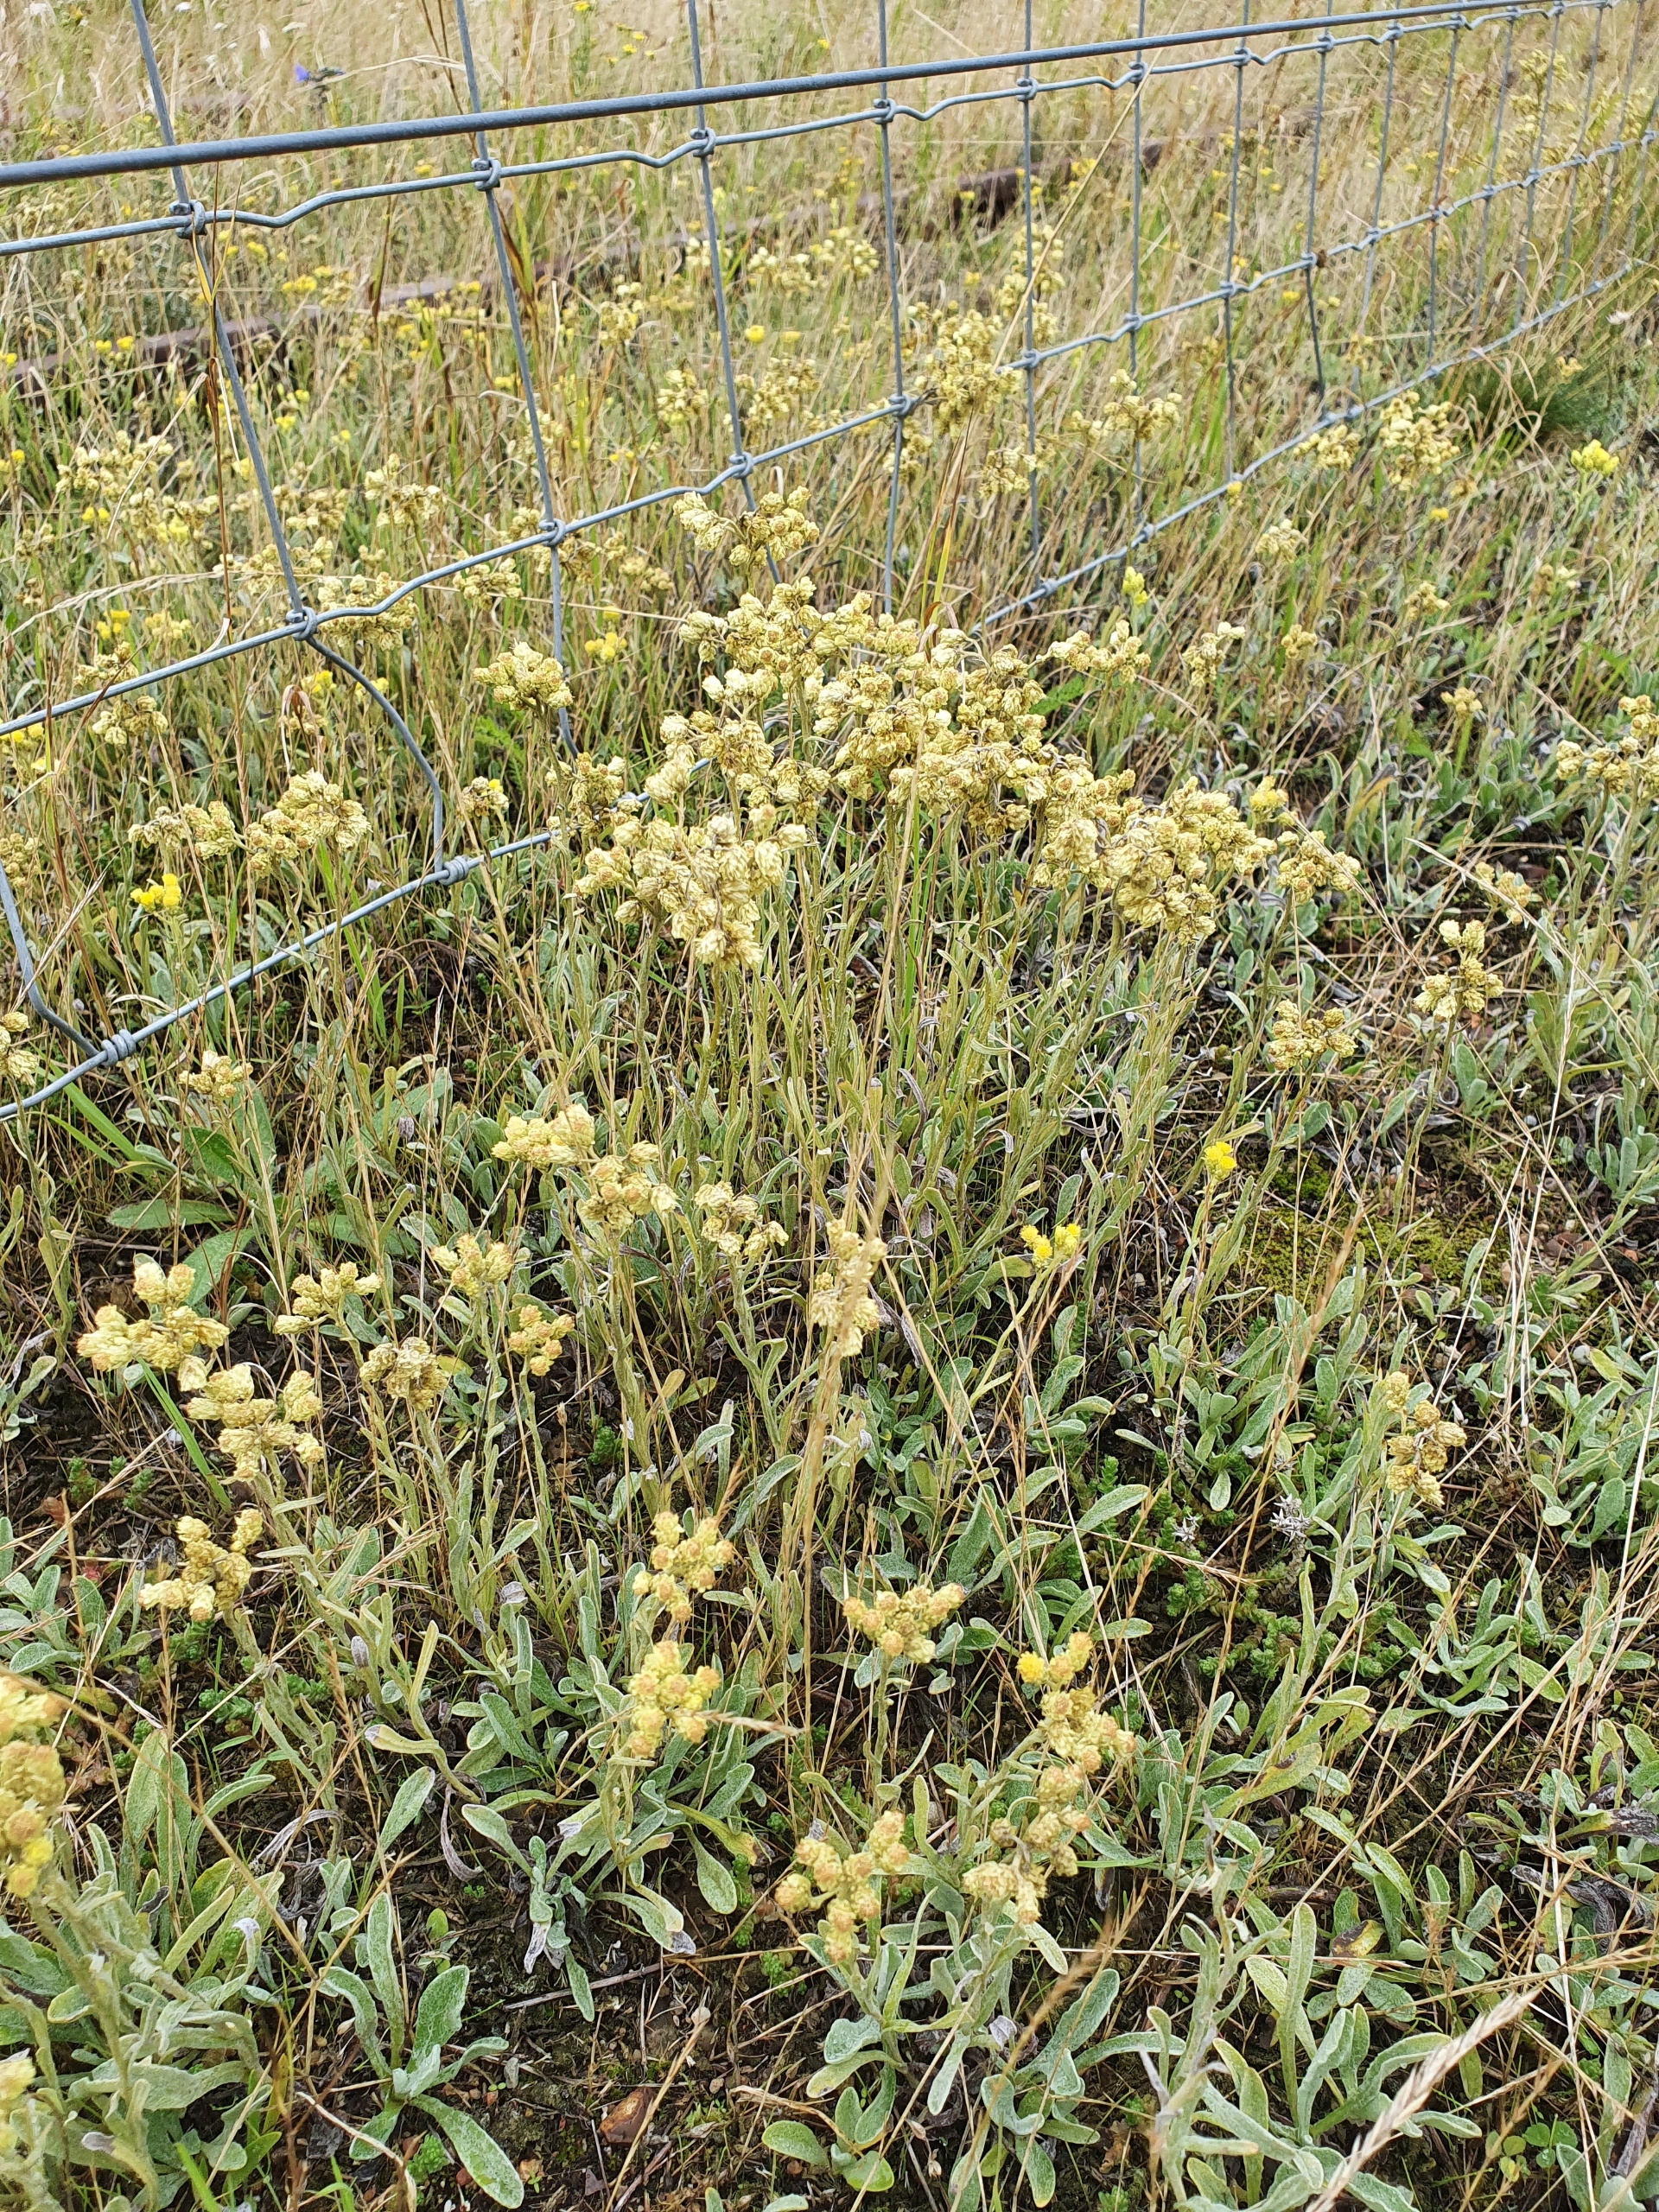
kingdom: Plantae
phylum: Tracheophyta
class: Magnoliopsida
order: Asterales
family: Asteraceae
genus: Helichrysum
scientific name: Helichrysum arenarium
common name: Gul evighedsblomst
